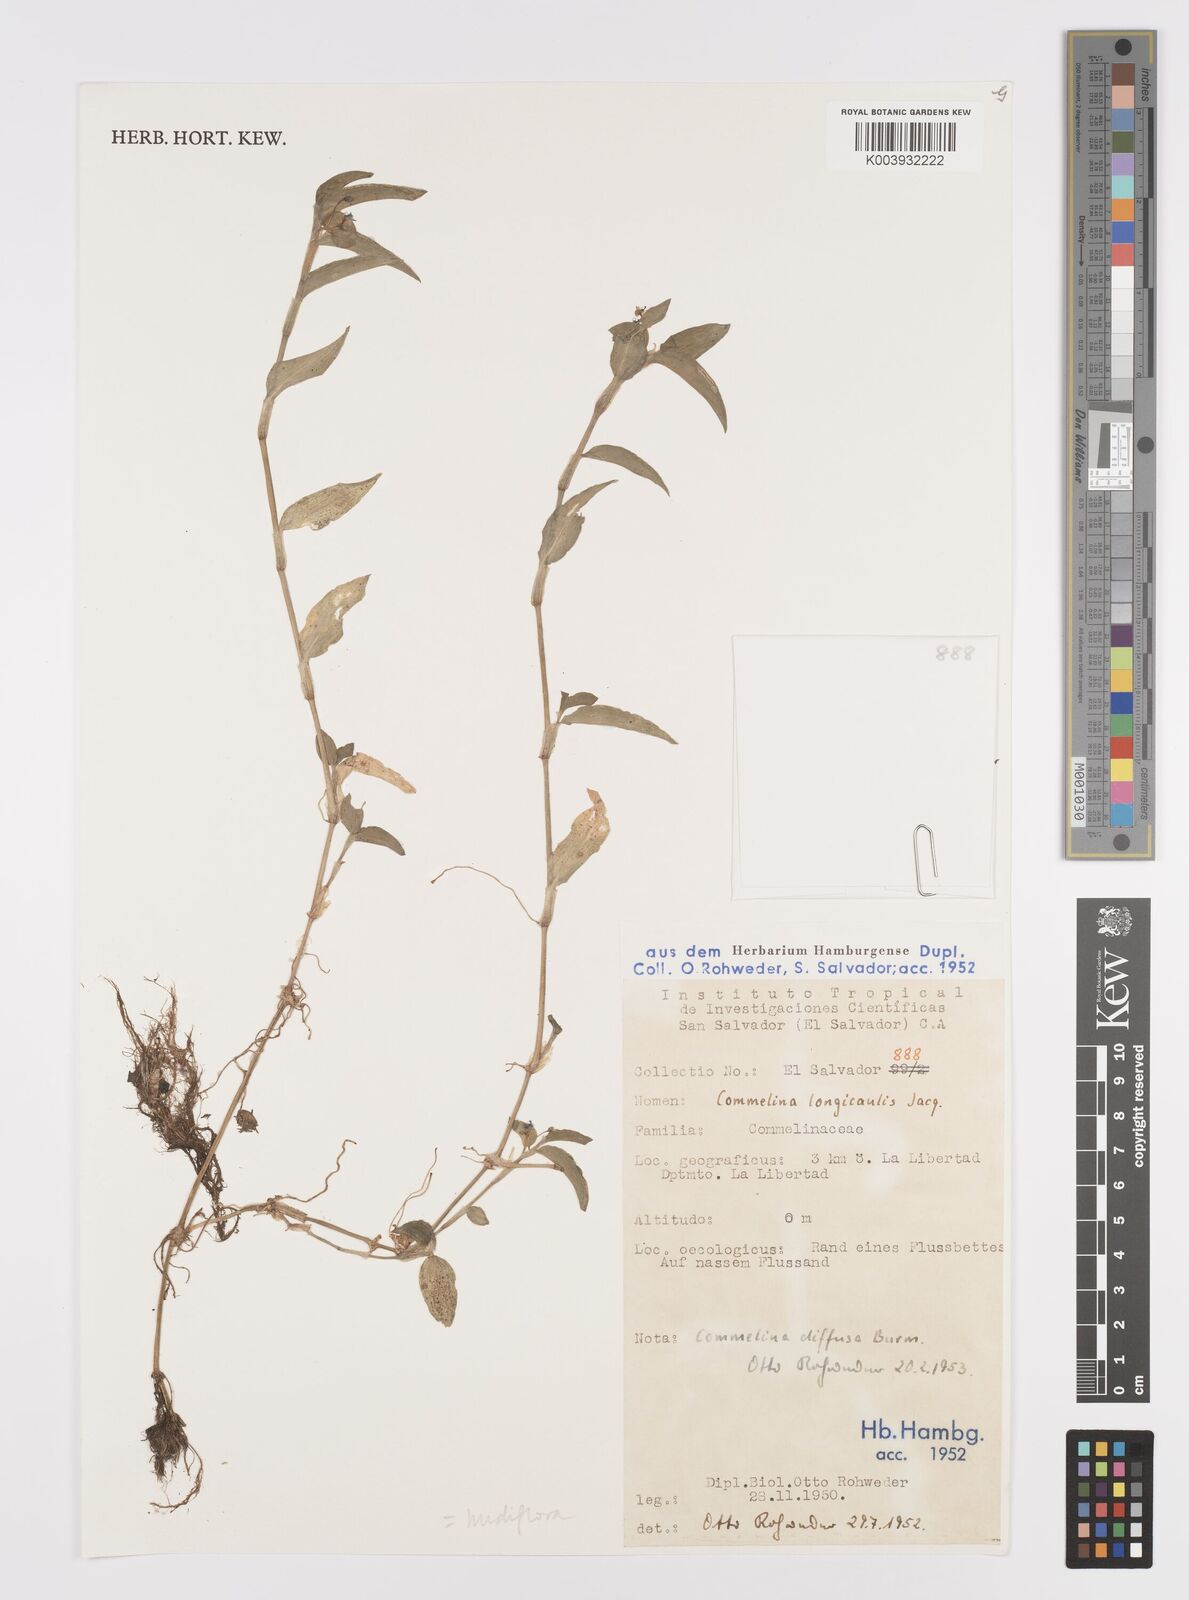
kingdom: Plantae
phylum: Tracheophyta
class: Liliopsida
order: Commelinales
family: Commelinaceae
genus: Commelina
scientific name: Commelina diffusa
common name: Climbing dayflower
